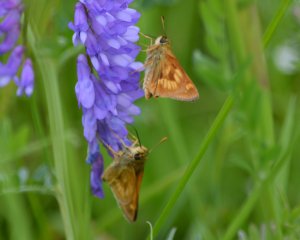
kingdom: Animalia
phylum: Arthropoda
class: Insecta
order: Lepidoptera
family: Hesperiidae
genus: Polites
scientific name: Polites
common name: Long Dash Skipper
